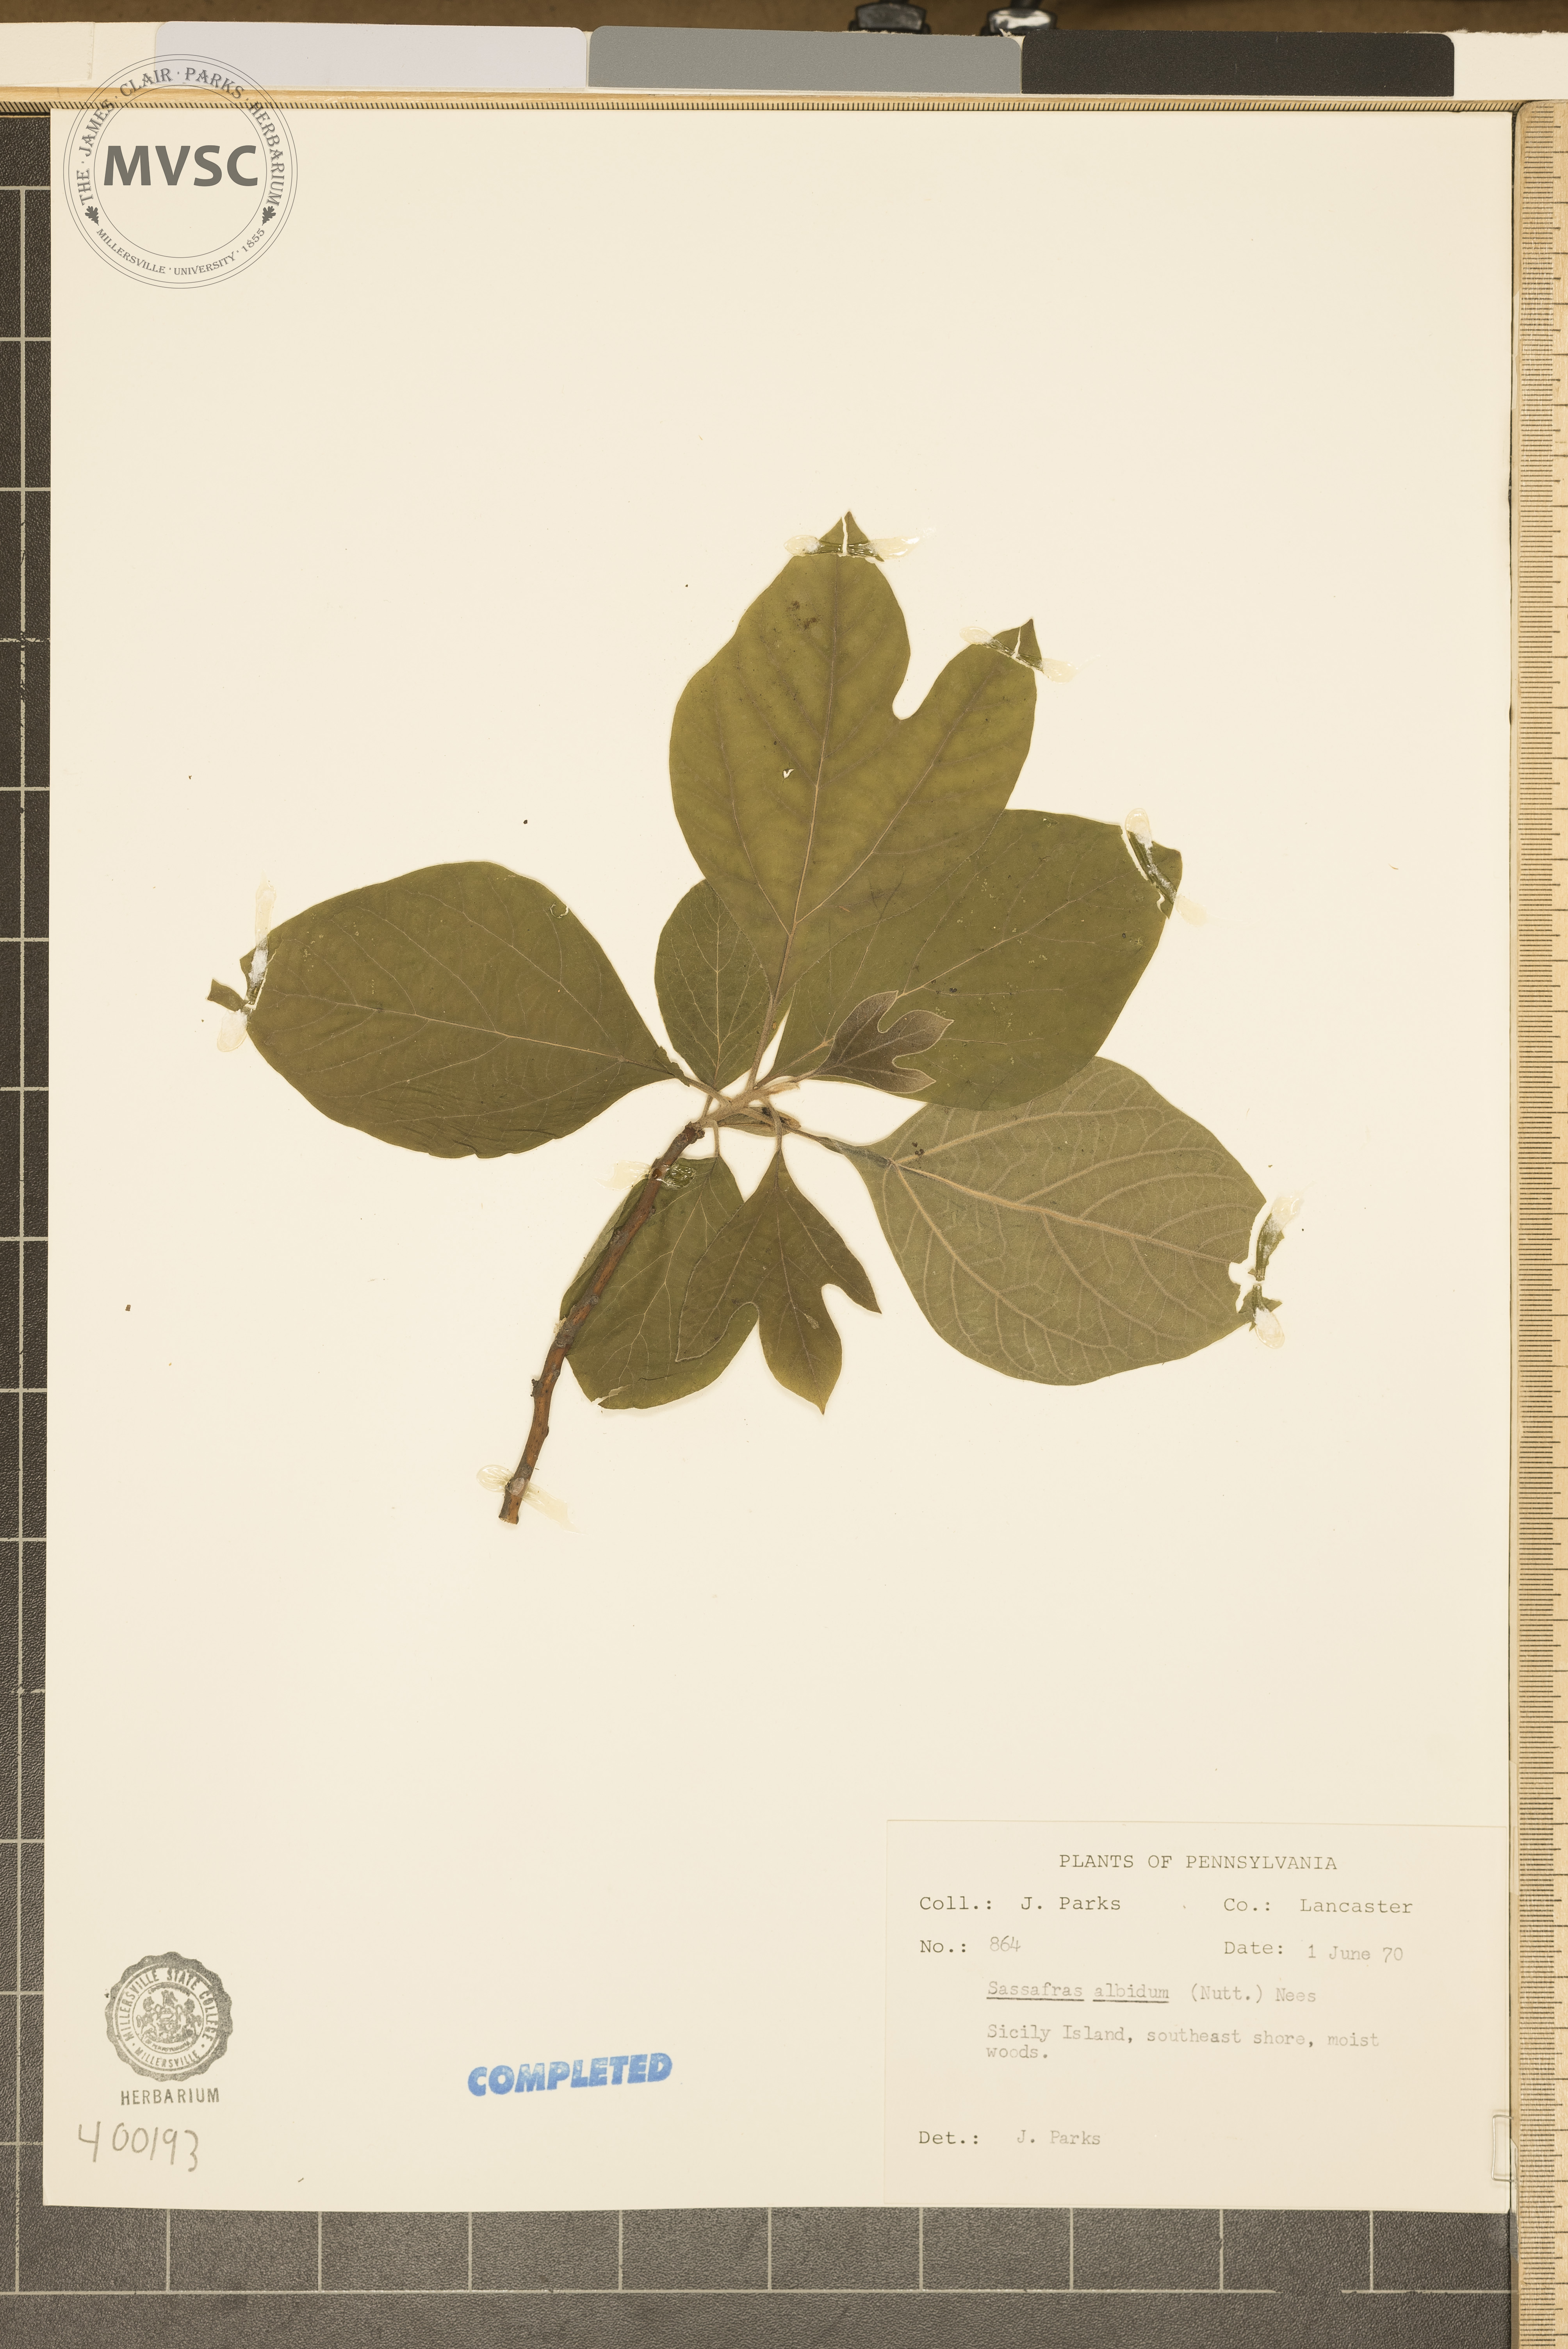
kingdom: Plantae
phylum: Tracheophyta
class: Magnoliopsida
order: Laurales
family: Lauraceae
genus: Sassafras
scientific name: Sassafras albidum
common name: sassafras
